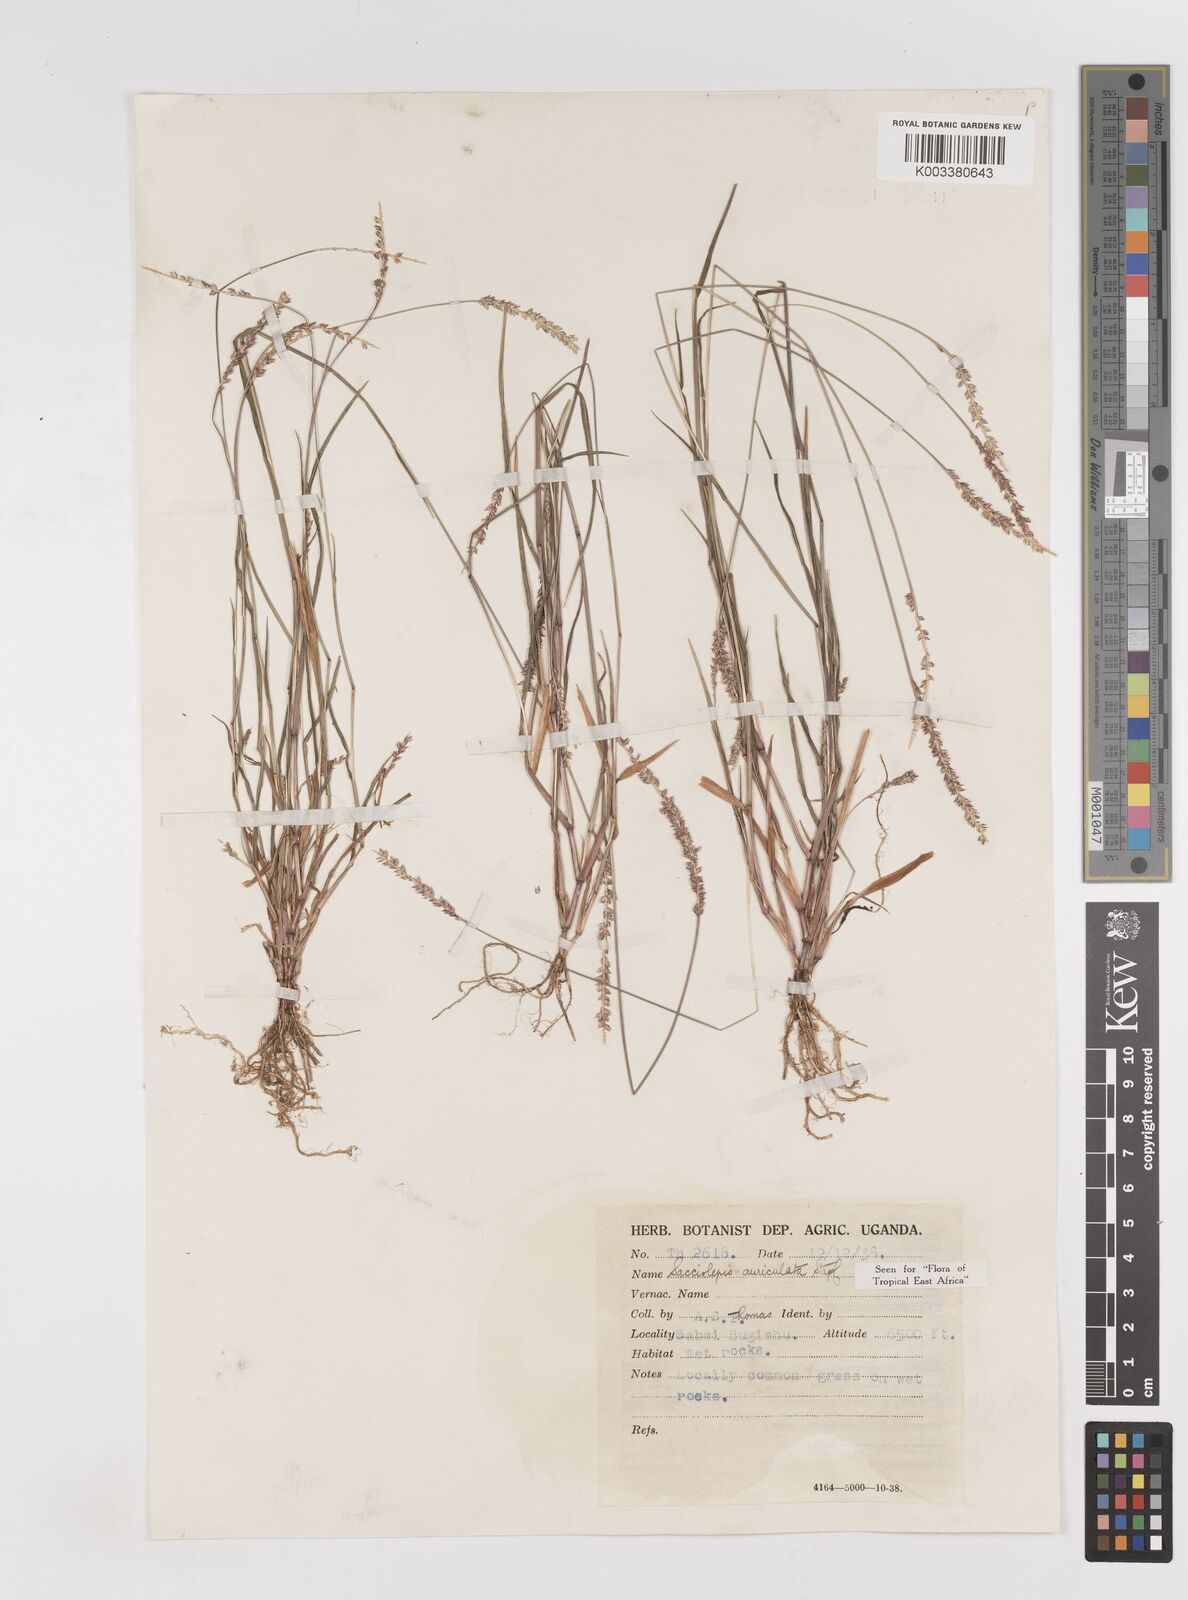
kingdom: Plantae
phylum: Tracheophyta
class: Liliopsida
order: Poales
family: Poaceae
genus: Sacciolepis
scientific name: Sacciolepis indica
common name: Glenwoodgrass
